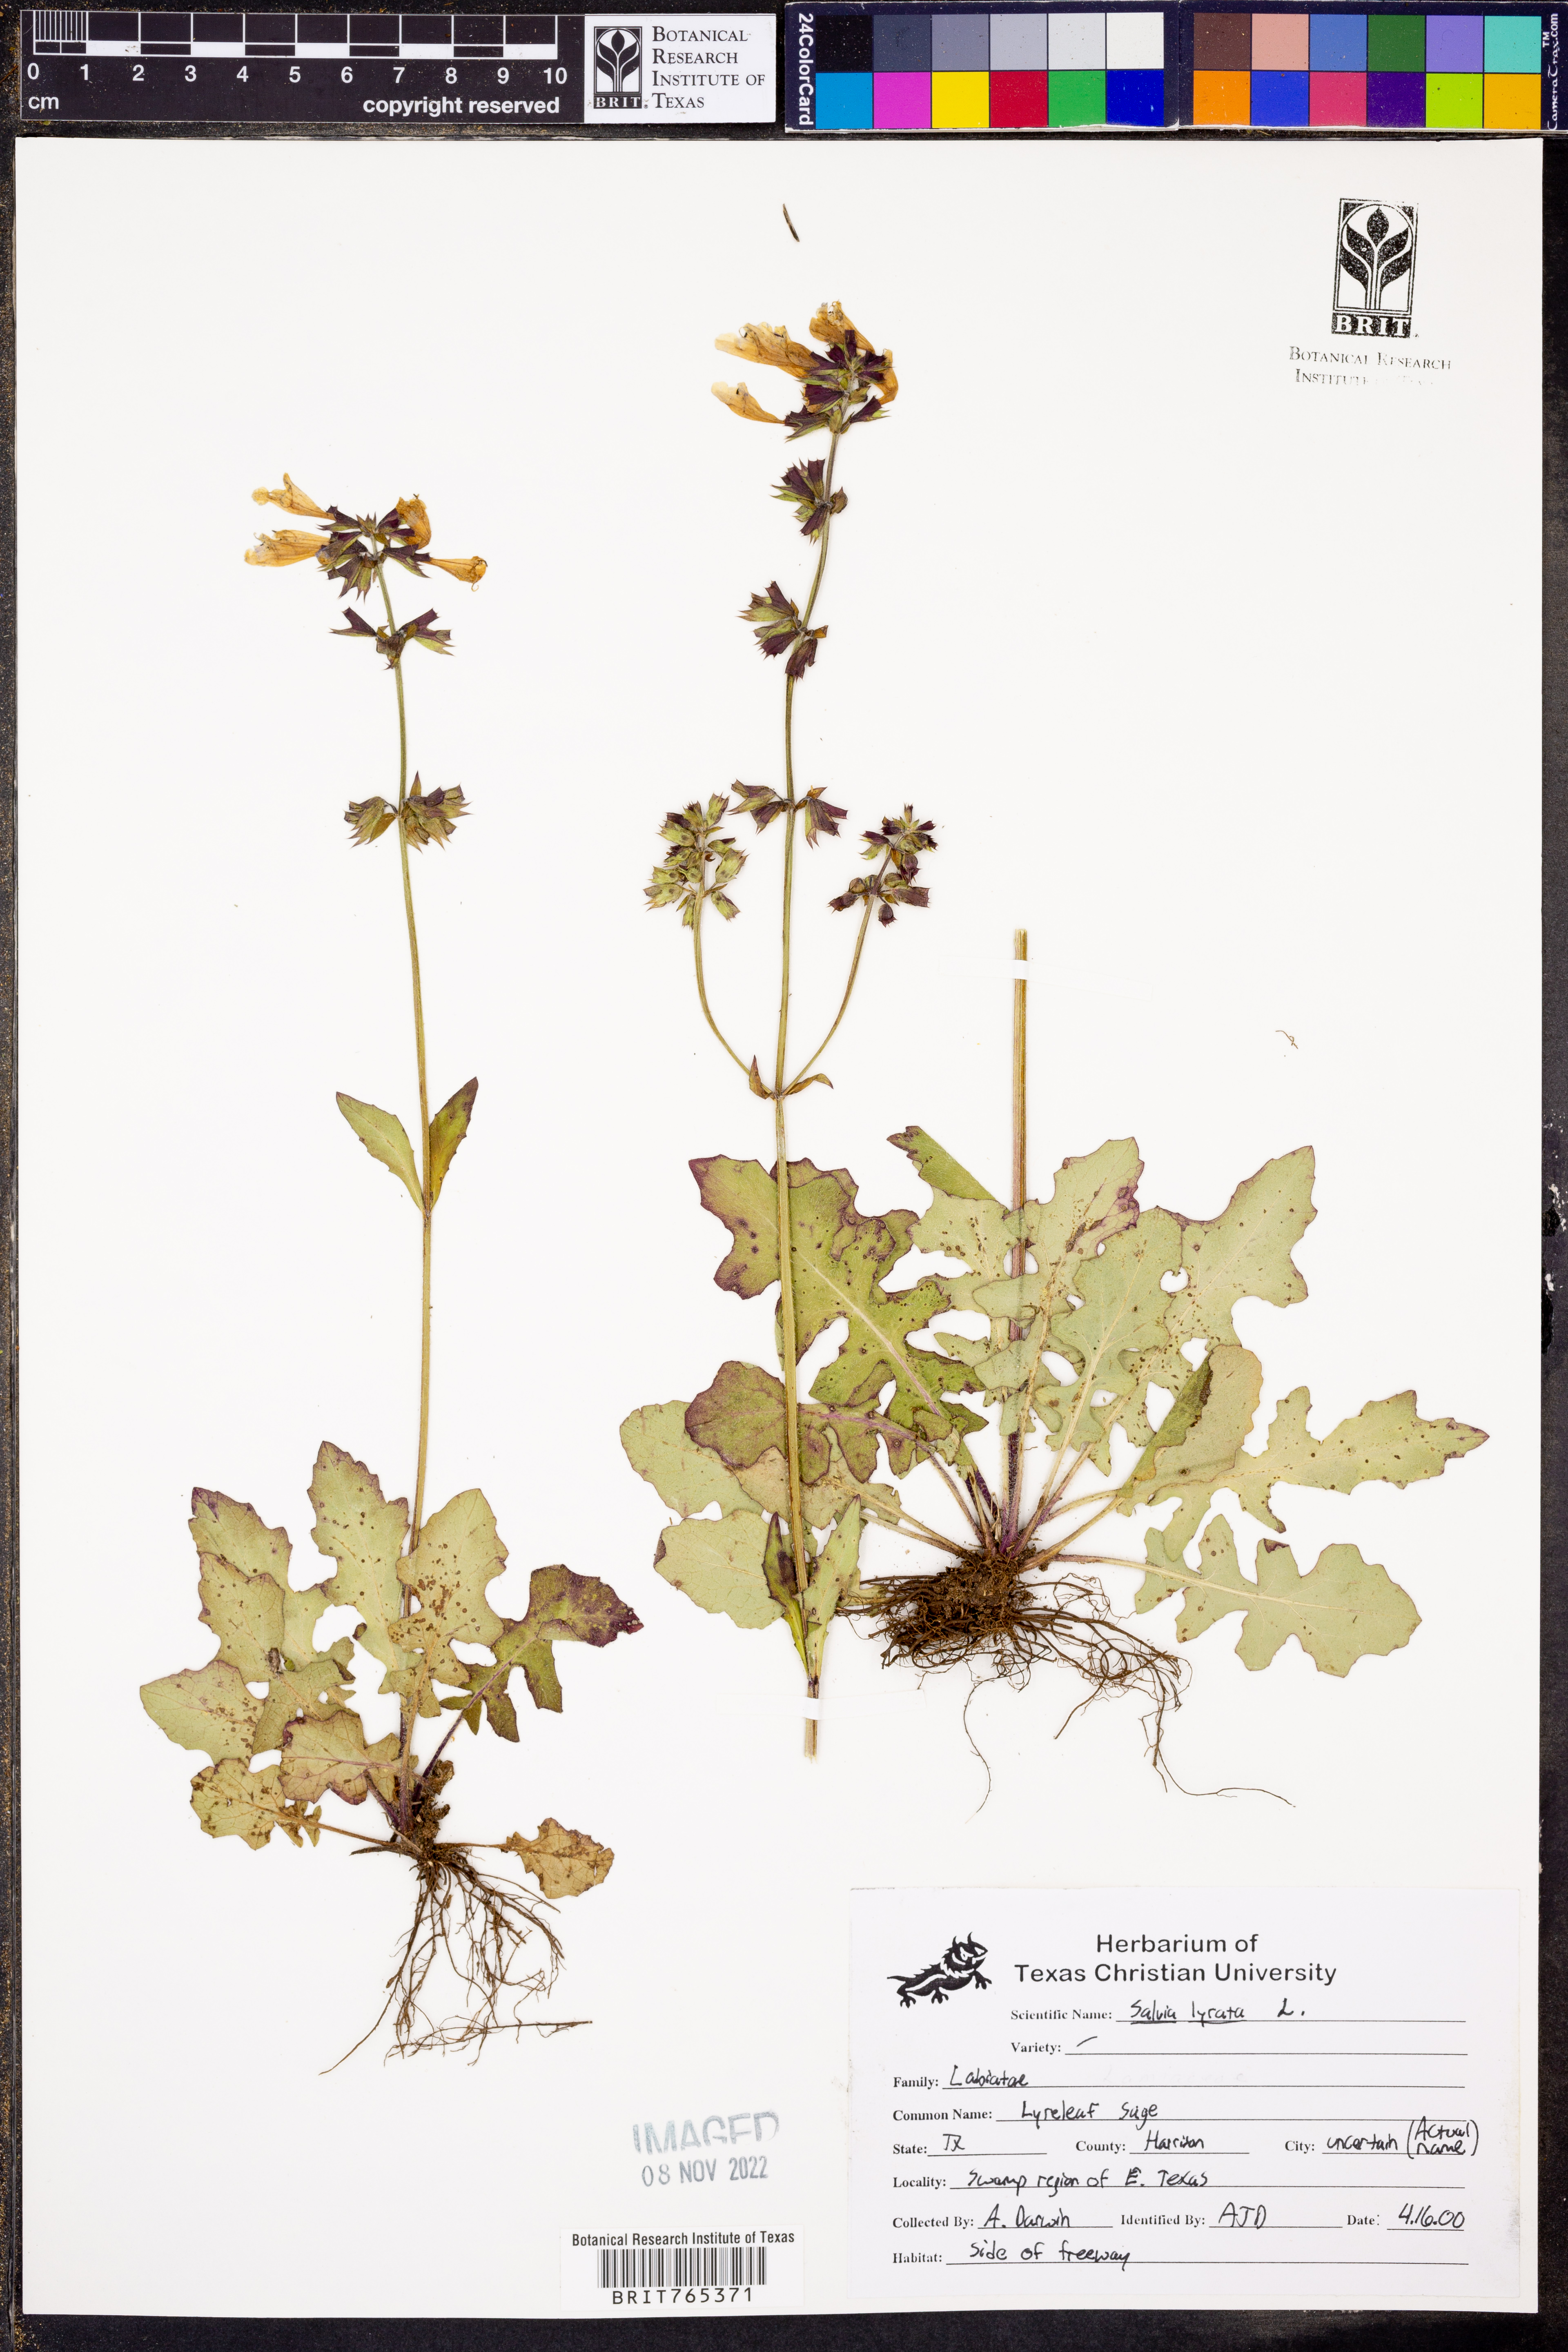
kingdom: Plantae
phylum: Tracheophyta
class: Magnoliopsida
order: Lamiales
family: Lamiaceae
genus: Salvia
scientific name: Salvia lyrata
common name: Cancerweed
